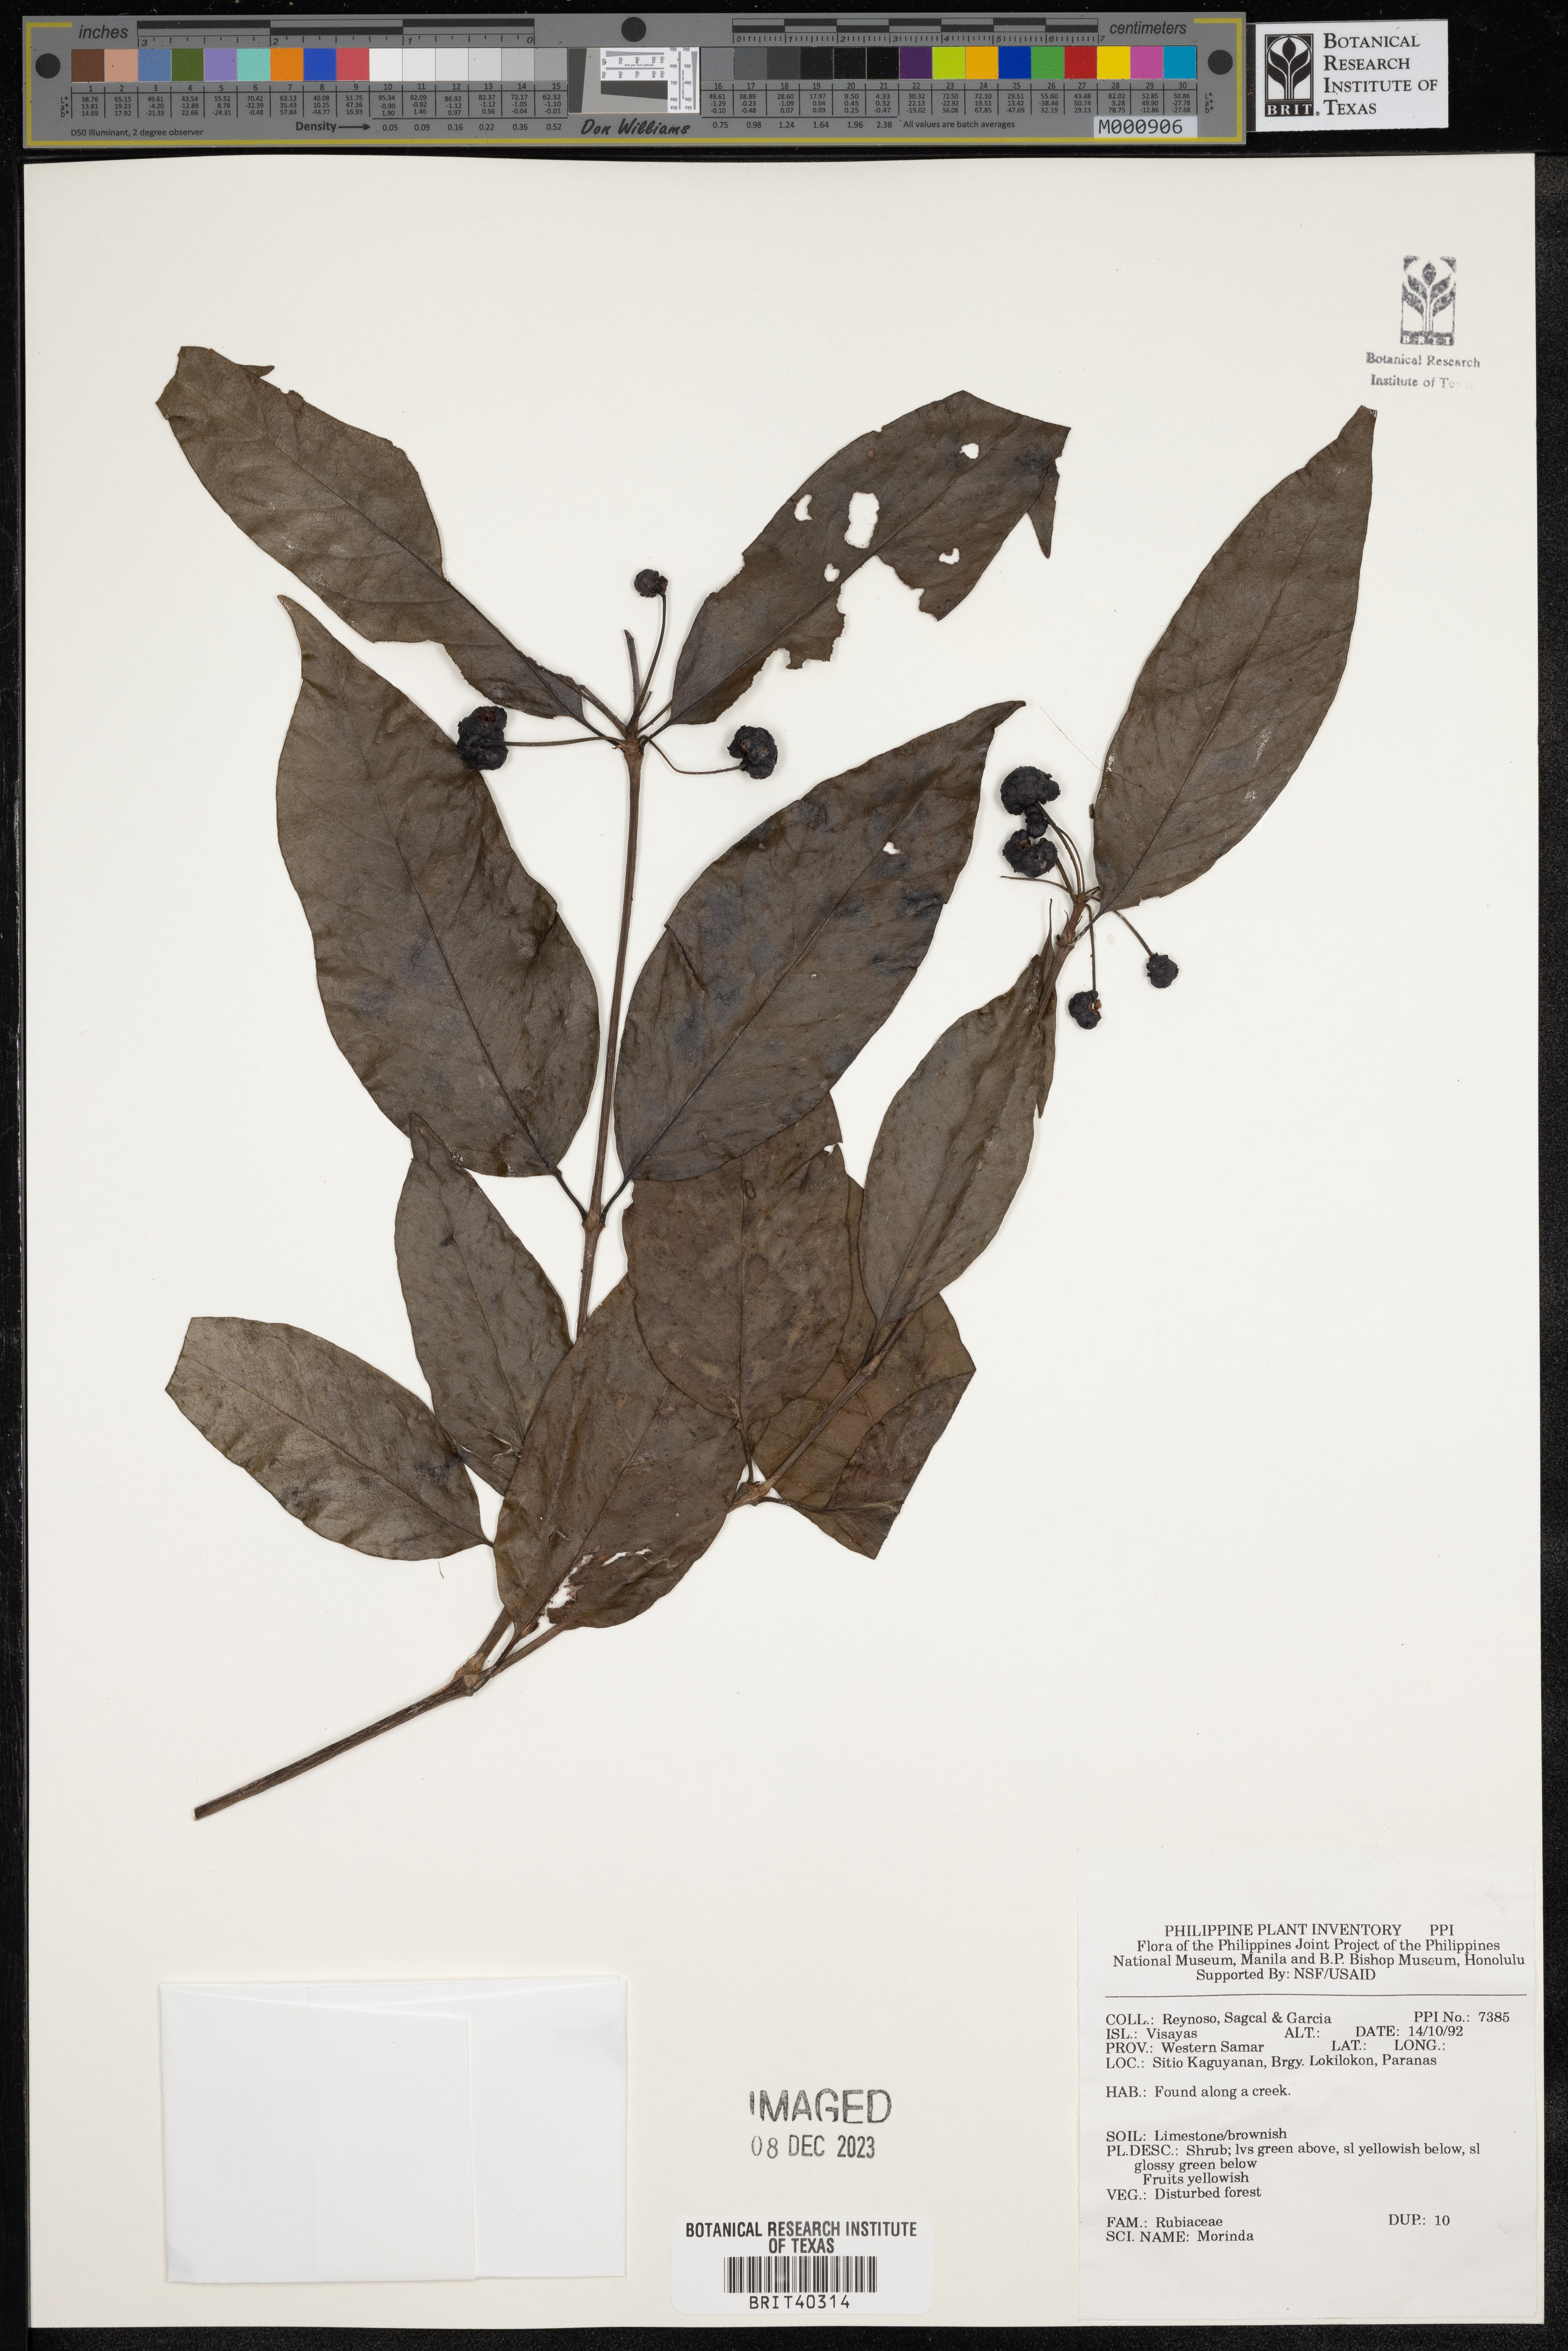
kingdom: Plantae
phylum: Tracheophyta
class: Magnoliopsida
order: Gentianales
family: Rubiaceae
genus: Morinda
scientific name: Morinda
